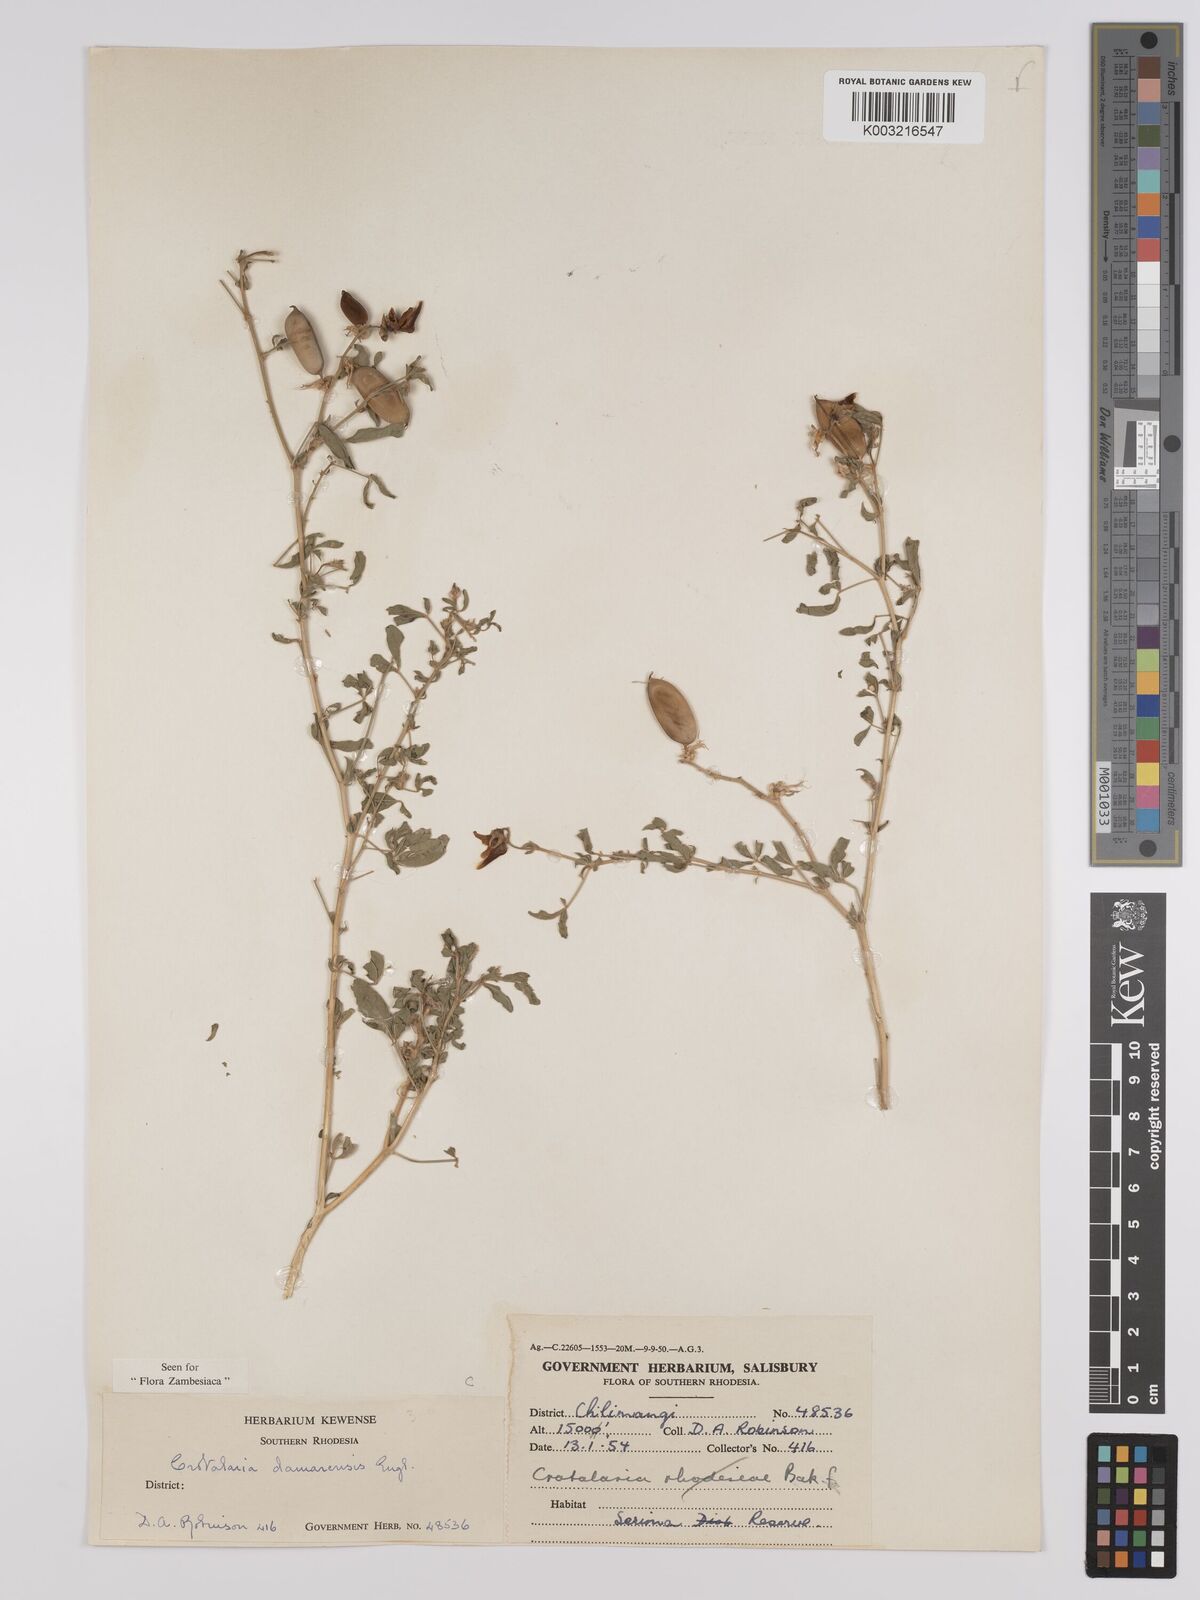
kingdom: Plantae
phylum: Tracheophyta
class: Magnoliopsida
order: Fabales
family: Fabaceae
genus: Crotalaria
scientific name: Crotalaria damarensis
